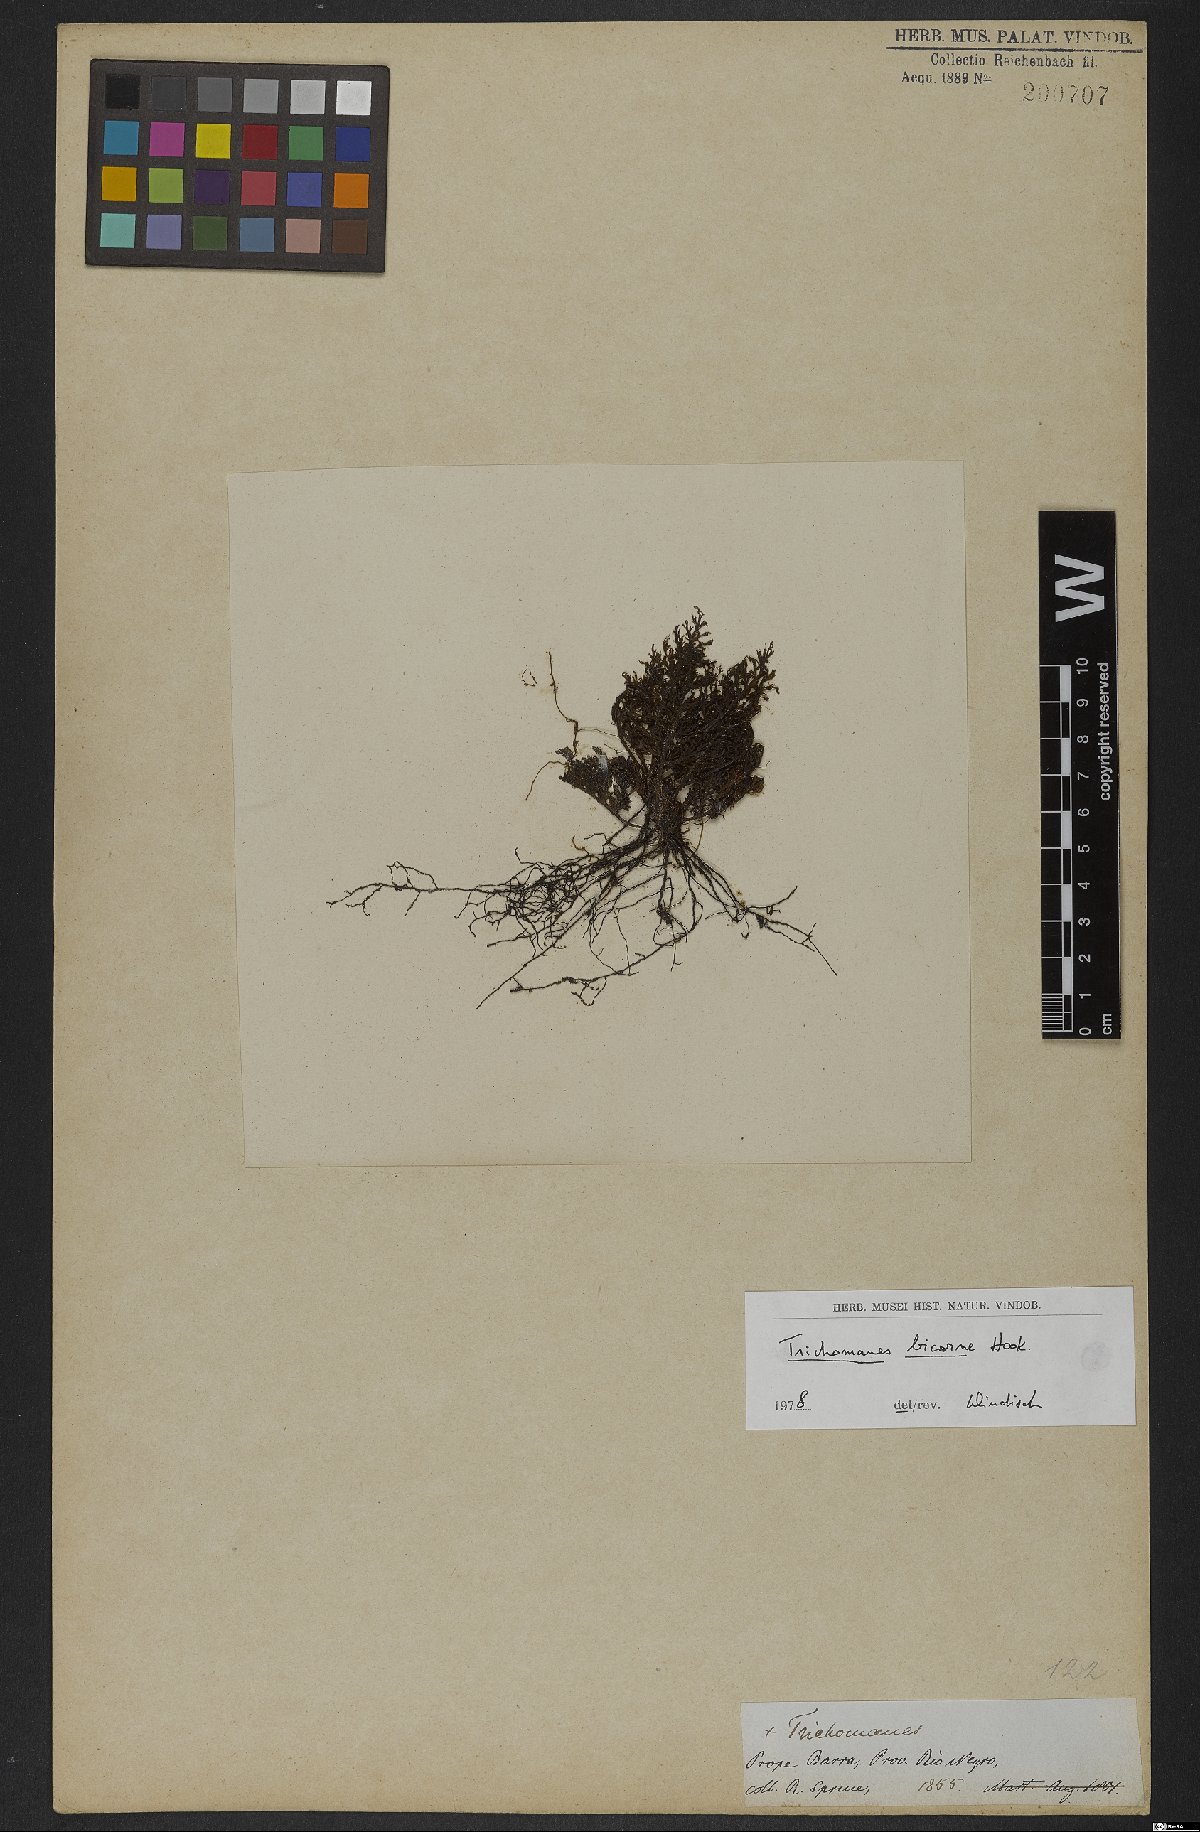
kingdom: Plantae
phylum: Tracheophyta
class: Polypodiopsida
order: Hymenophyllales
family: Hymenophyllaceae
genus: Trichomanes
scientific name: Trichomanes bicorne
